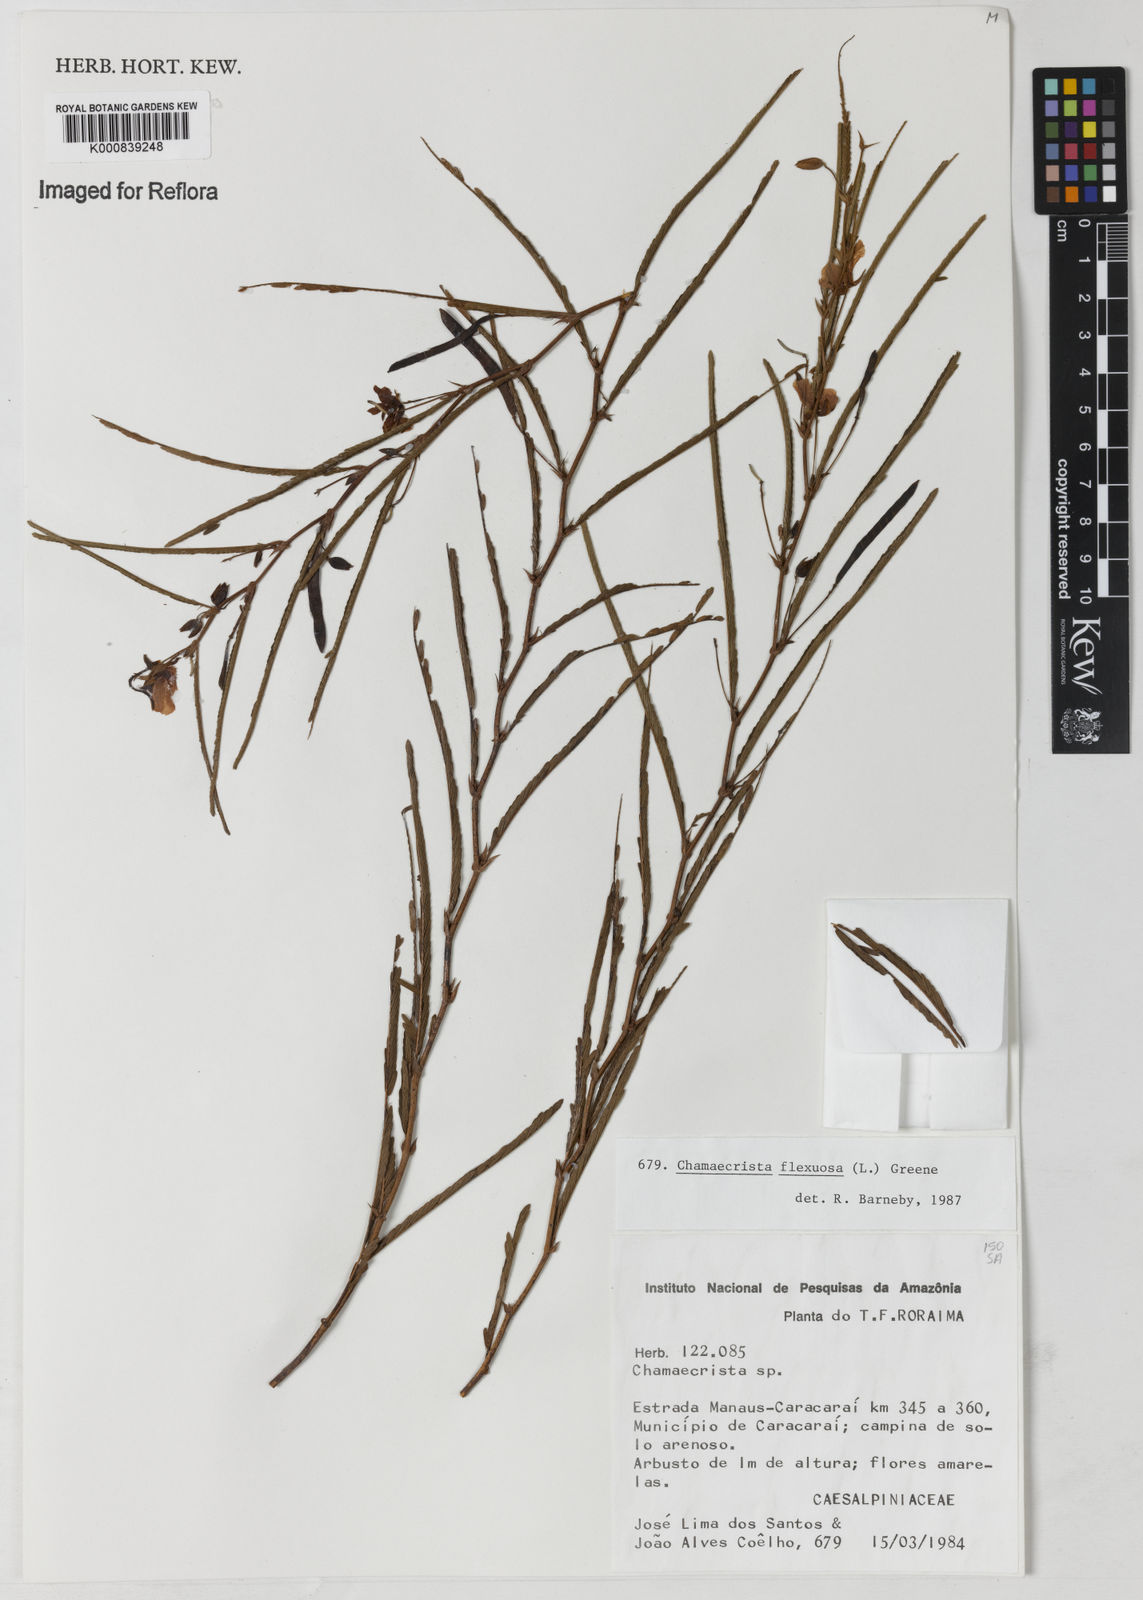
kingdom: Plantae
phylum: Tracheophyta
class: Magnoliopsida
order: Fabales
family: Fabaceae
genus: Chamaecrista
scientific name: Chamaecrista flexuosa
